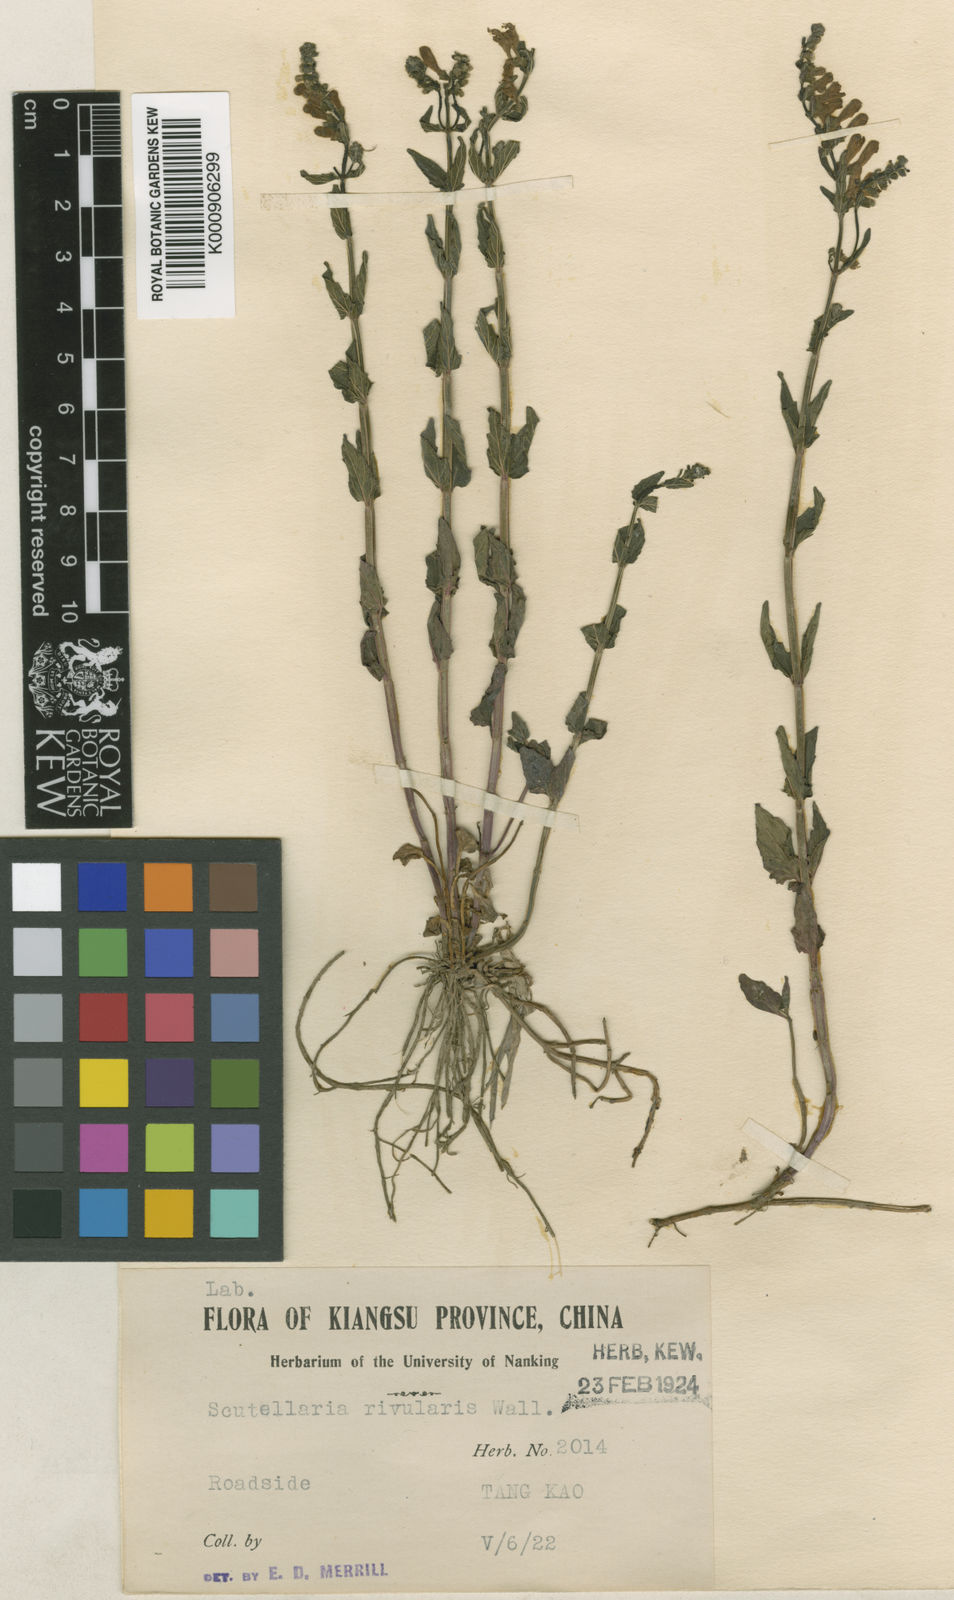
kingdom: Plantae
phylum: Tracheophyta
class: Magnoliopsida
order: Lamiales
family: Lamiaceae
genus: Scutellaria
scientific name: Scutellaria
